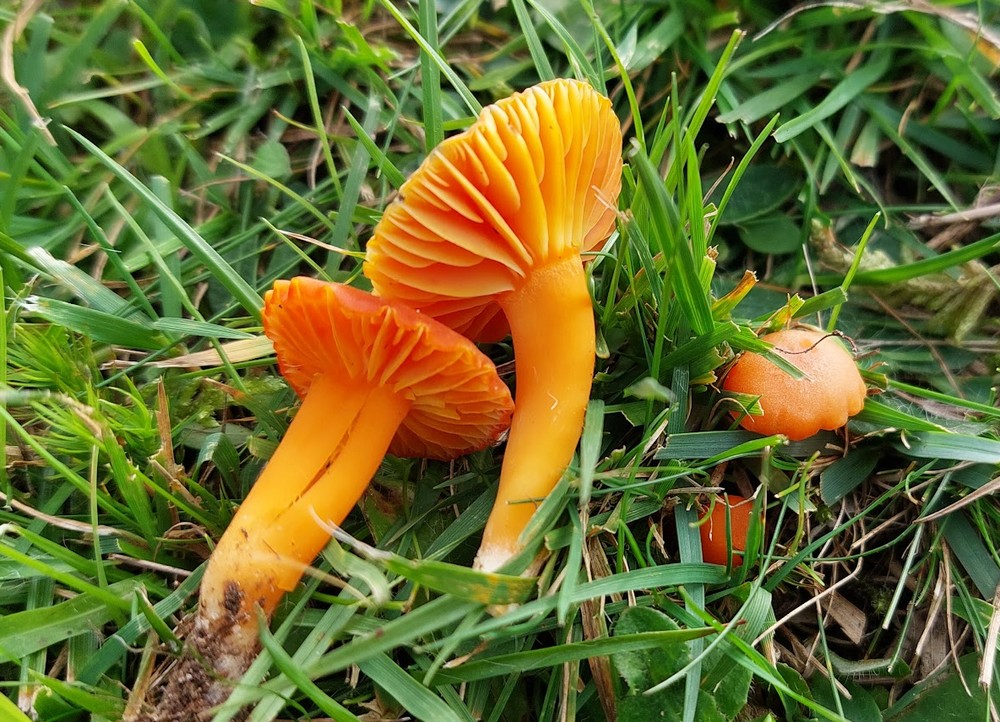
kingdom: Fungi
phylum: Basidiomycota
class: Agaricomycetes
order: Agaricales
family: Hygrophoraceae
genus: Hygrocybe
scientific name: Hygrocybe reidii
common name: honning-vokshat
